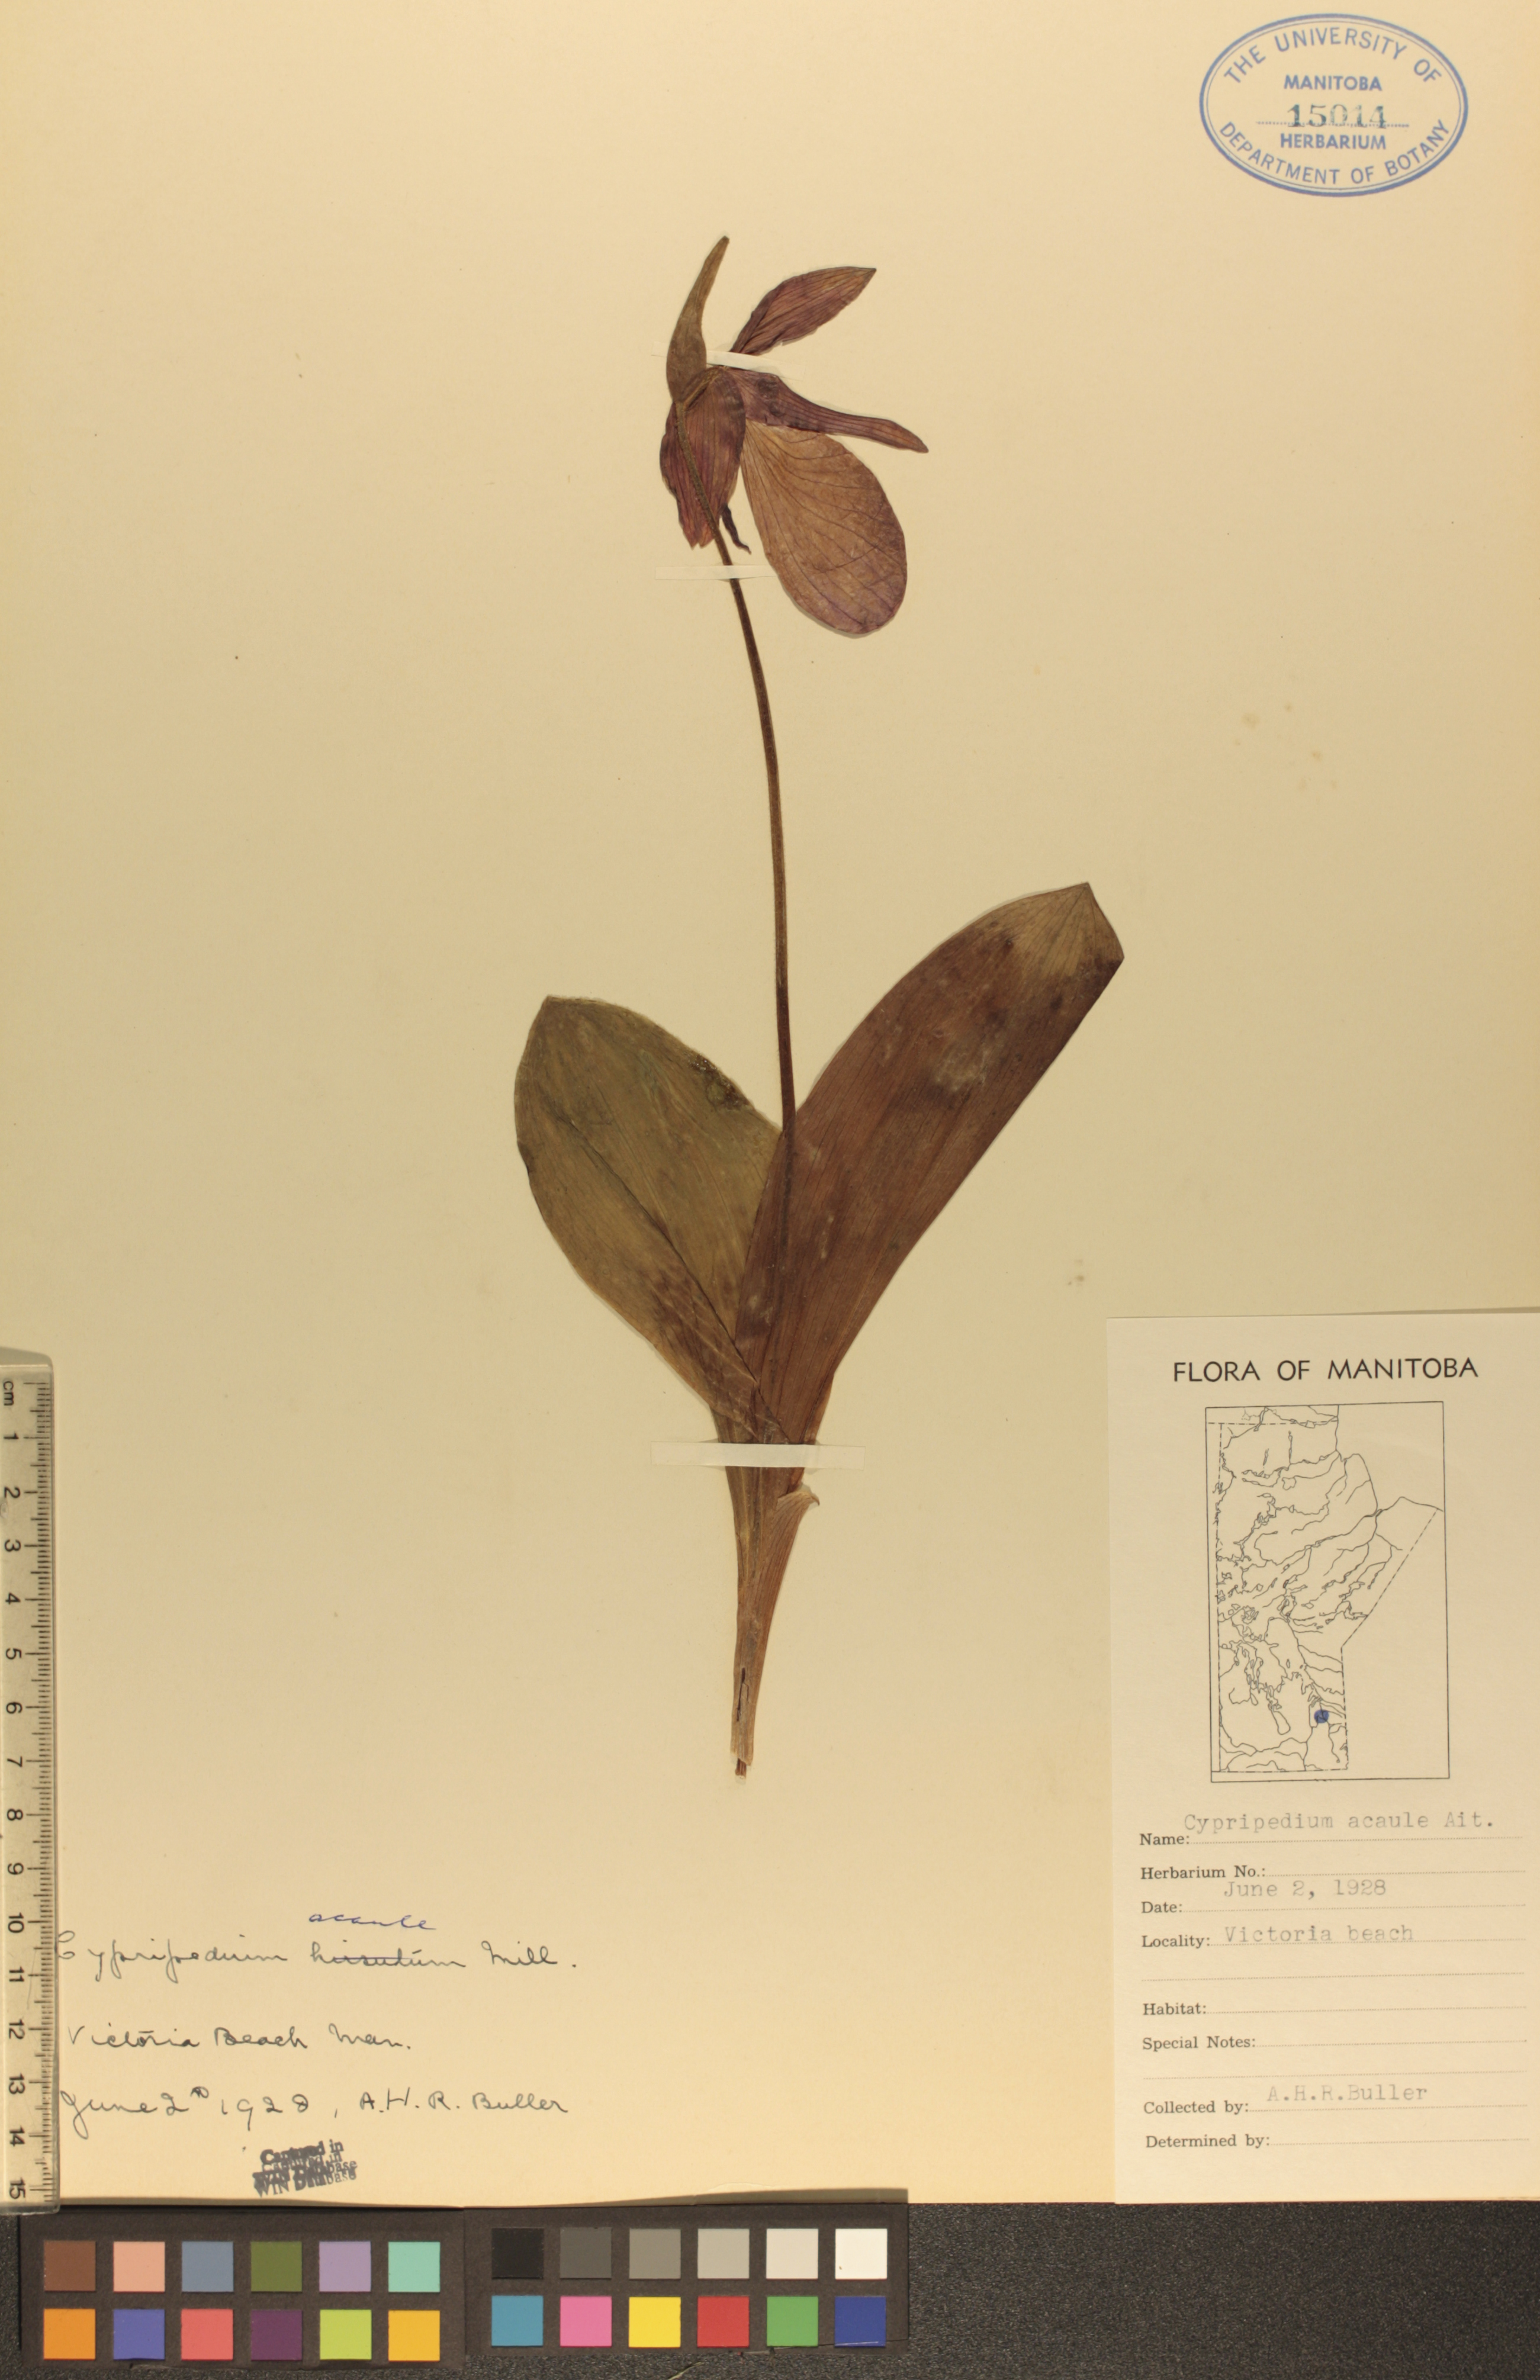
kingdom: Plantae
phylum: Tracheophyta
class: Liliopsida
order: Asparagales
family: Orchidaceae
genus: Cypripedium
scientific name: Cypripedium acaule
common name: Pink lady's-slipper
